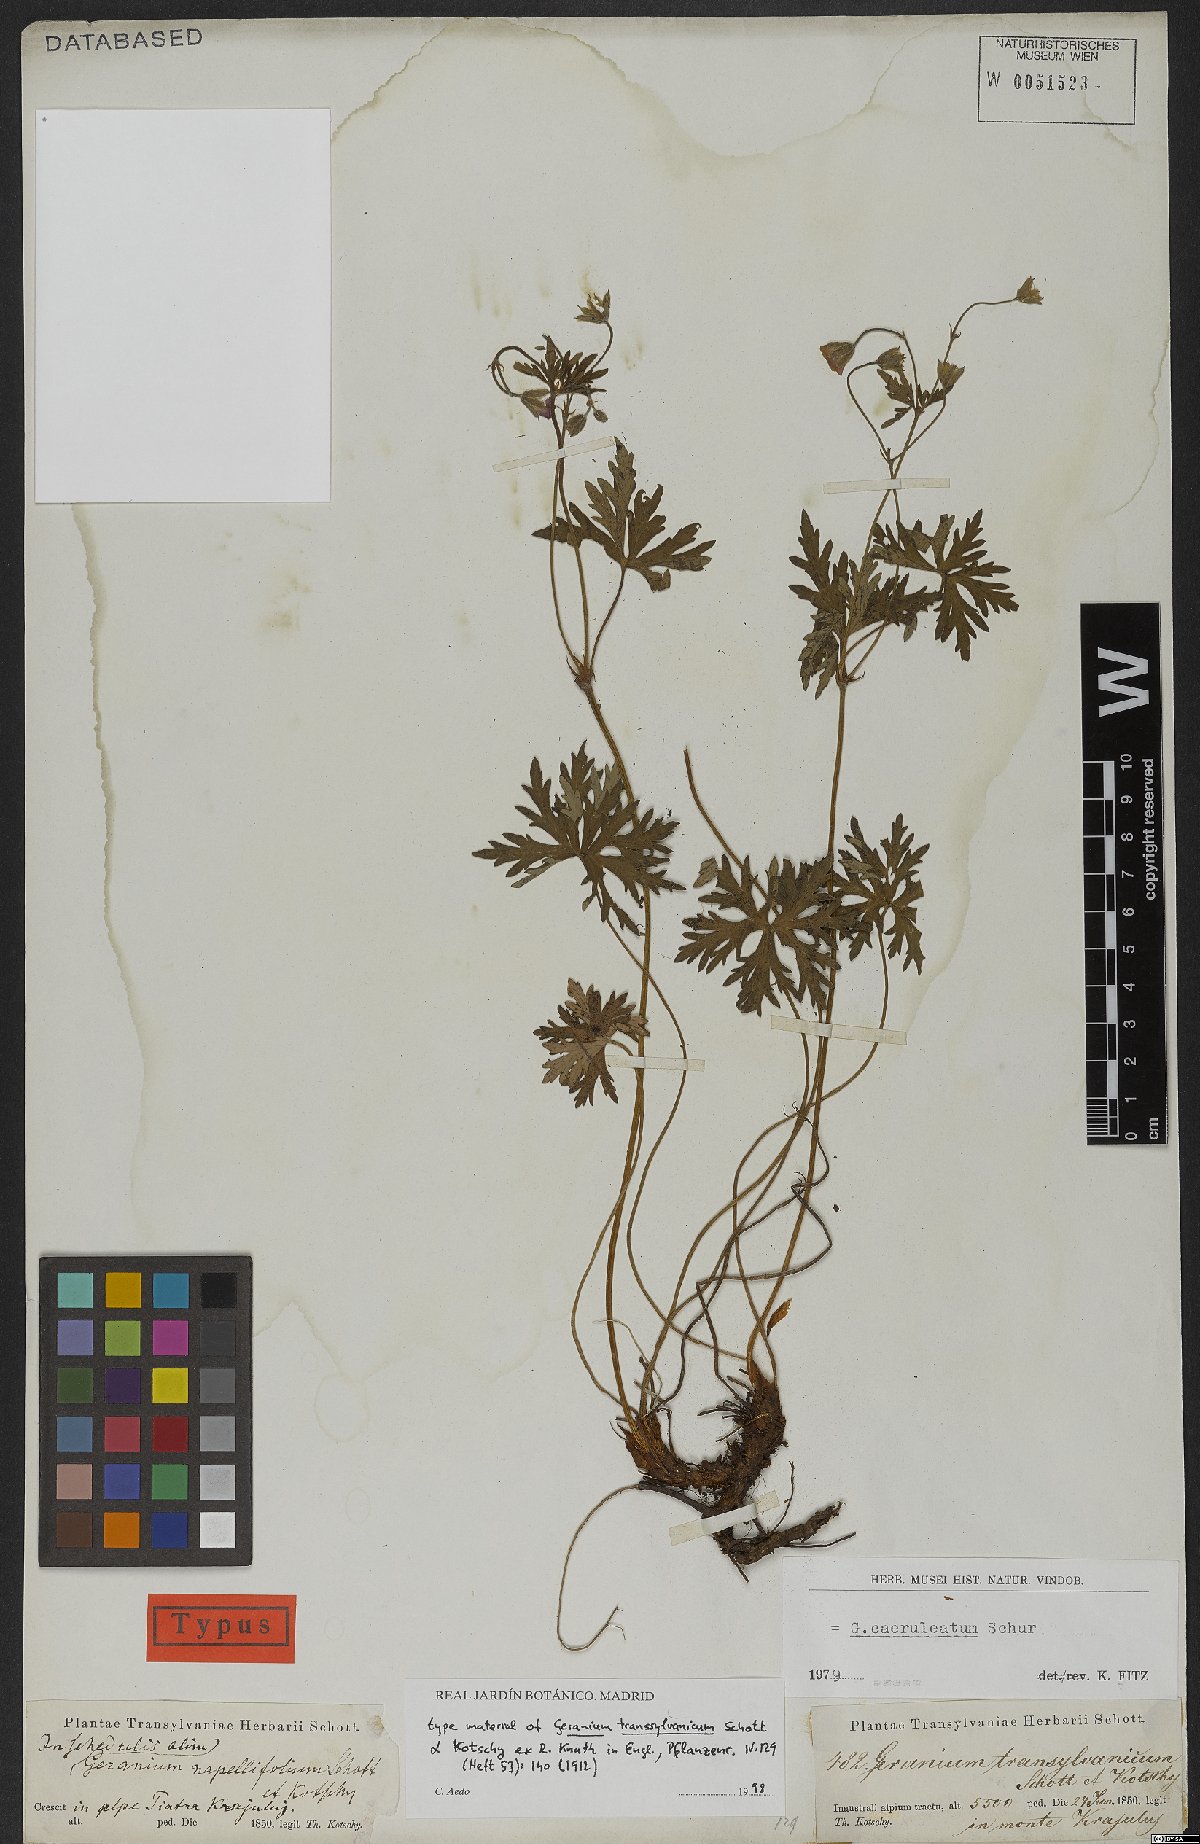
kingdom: Plantae
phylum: Tracheophyta
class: Magnoliopsida
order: Geraniales
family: Geraniaceae
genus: Geranium
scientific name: Geranium caeruleatum
